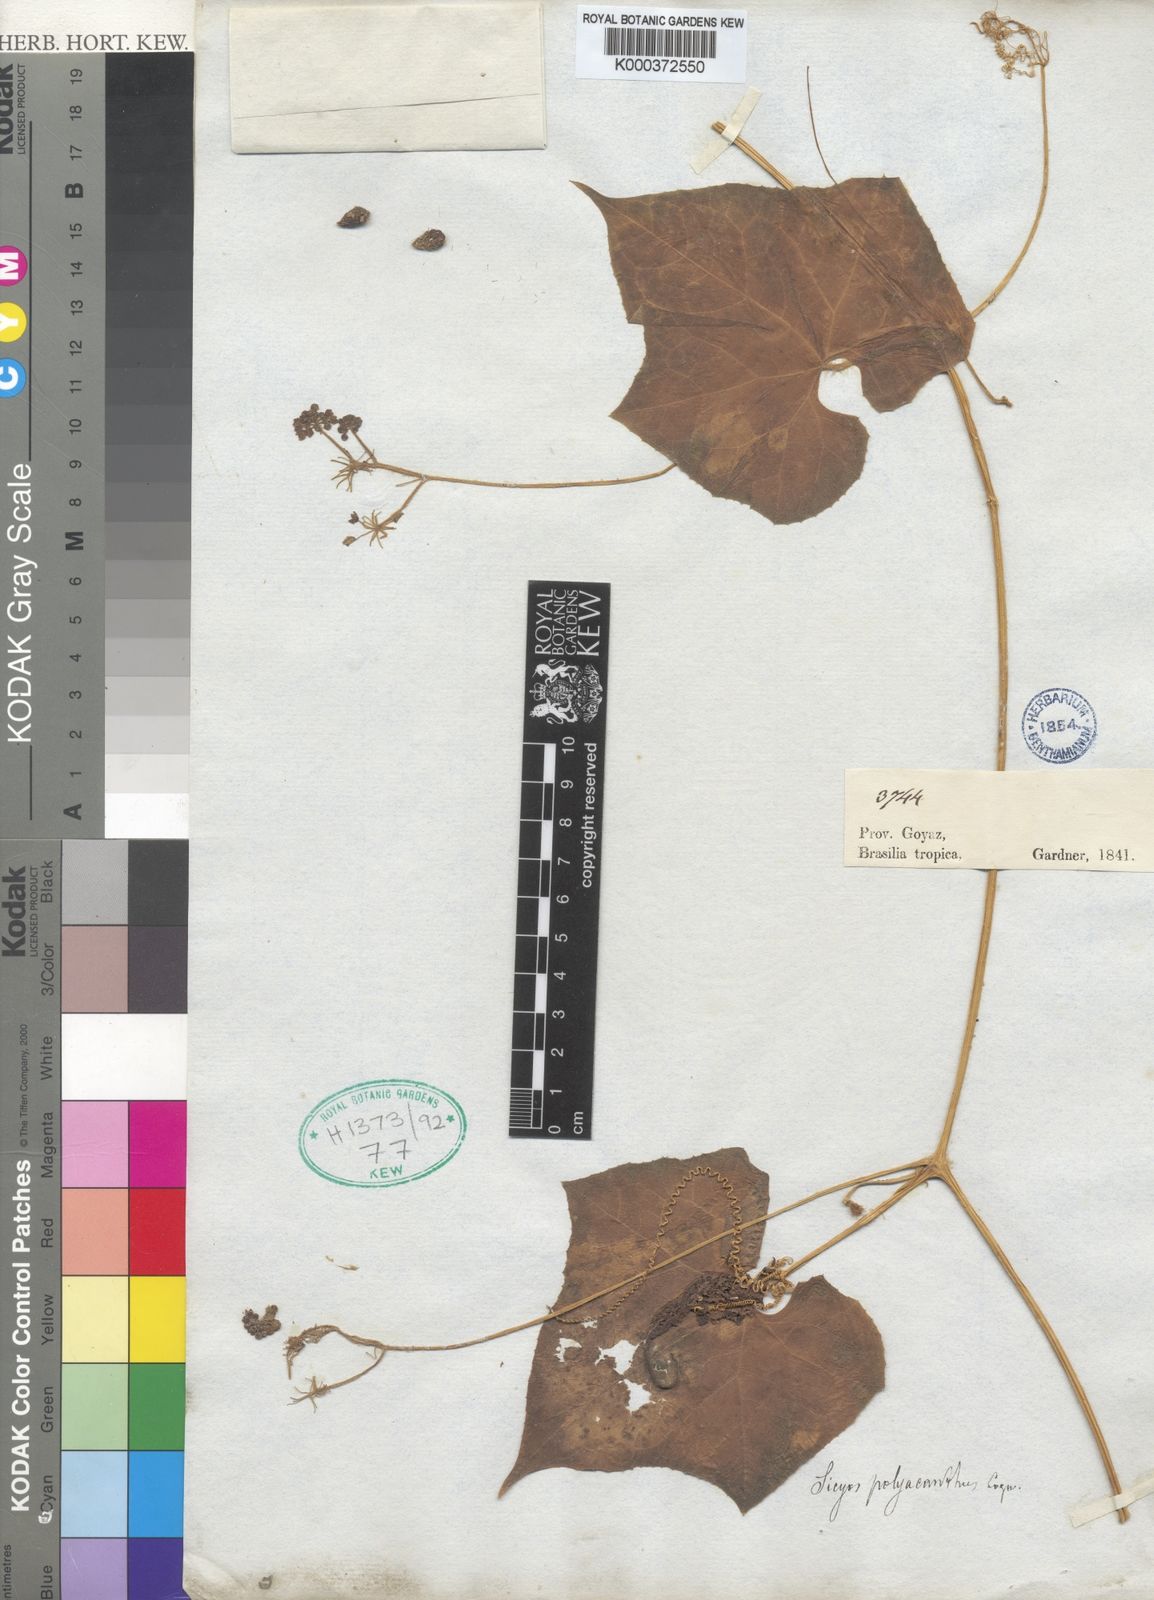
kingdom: Plantae
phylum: Tracheophyta
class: Magnoliopsida
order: Cucurbitales
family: Cucurbitaceae
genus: Sicyos
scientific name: Sicyos polyacanthos
